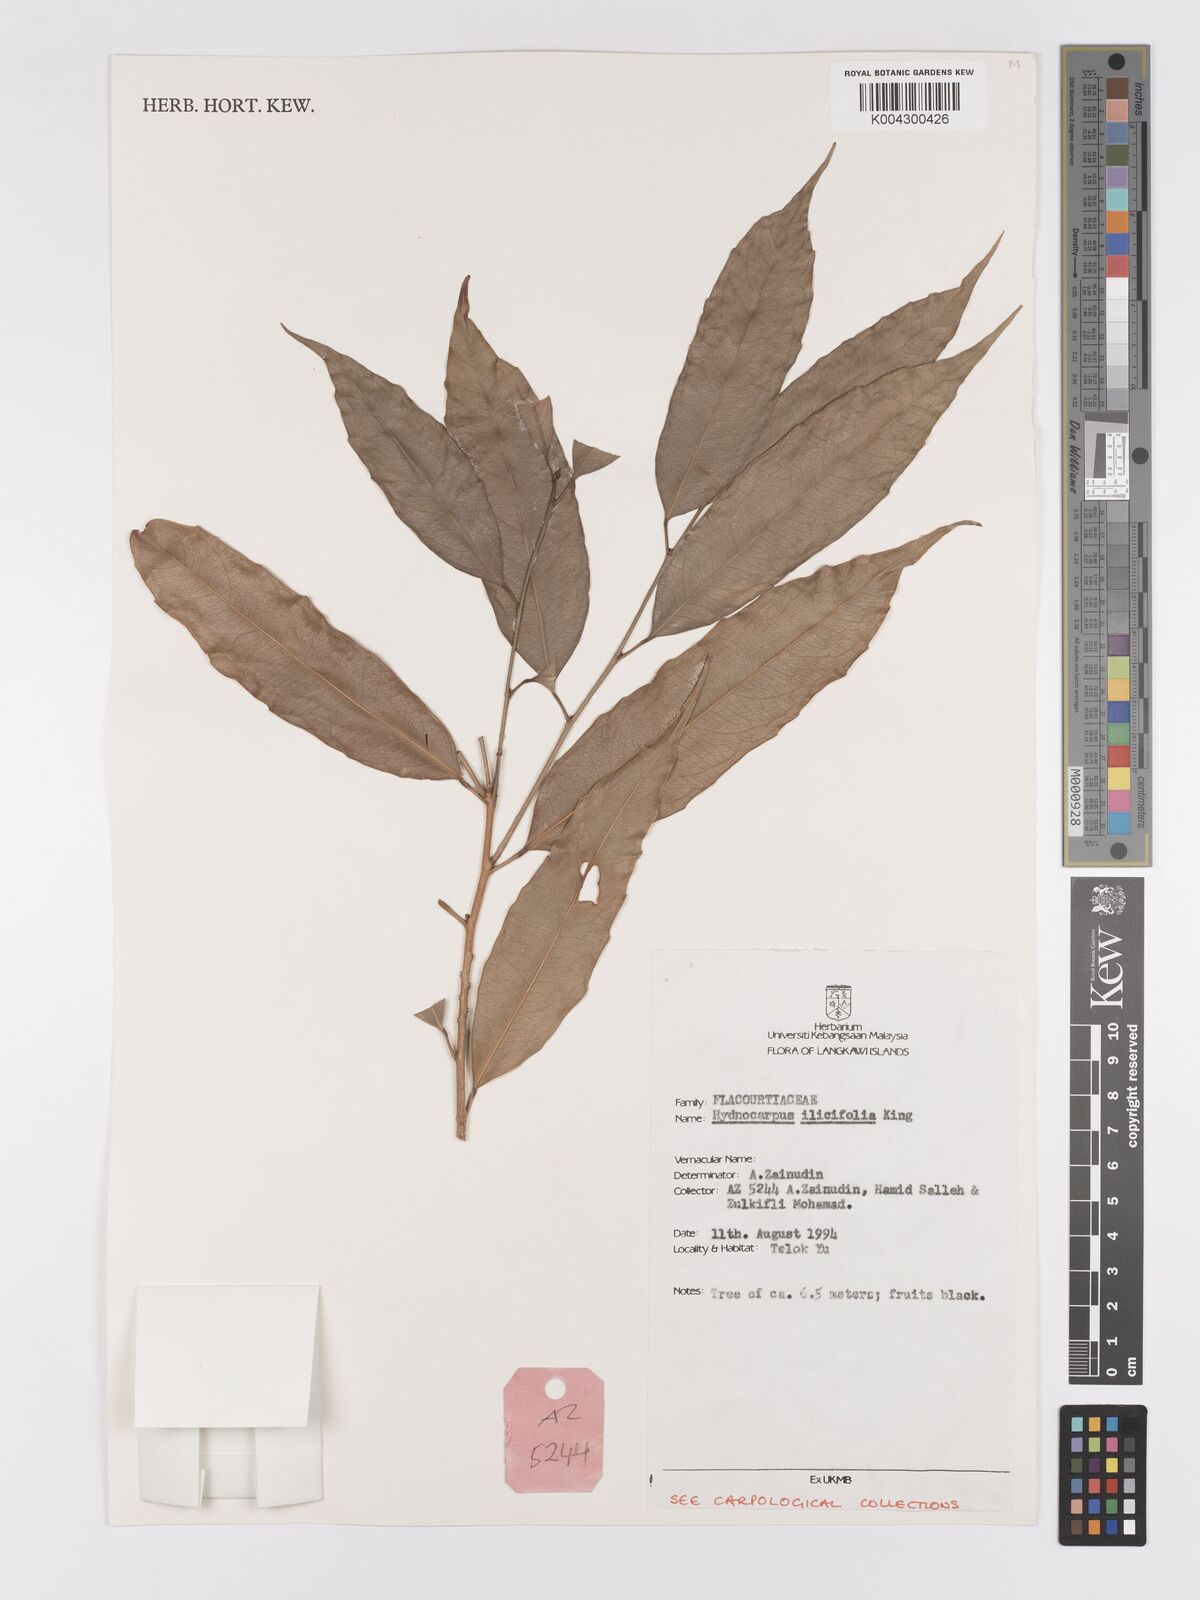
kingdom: Plantae
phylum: Tracheophyta
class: Magnoliopsida
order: Malpighiales
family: Achariaceae
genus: Hydnocarpus
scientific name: Hydnocarpus ilicifolius
